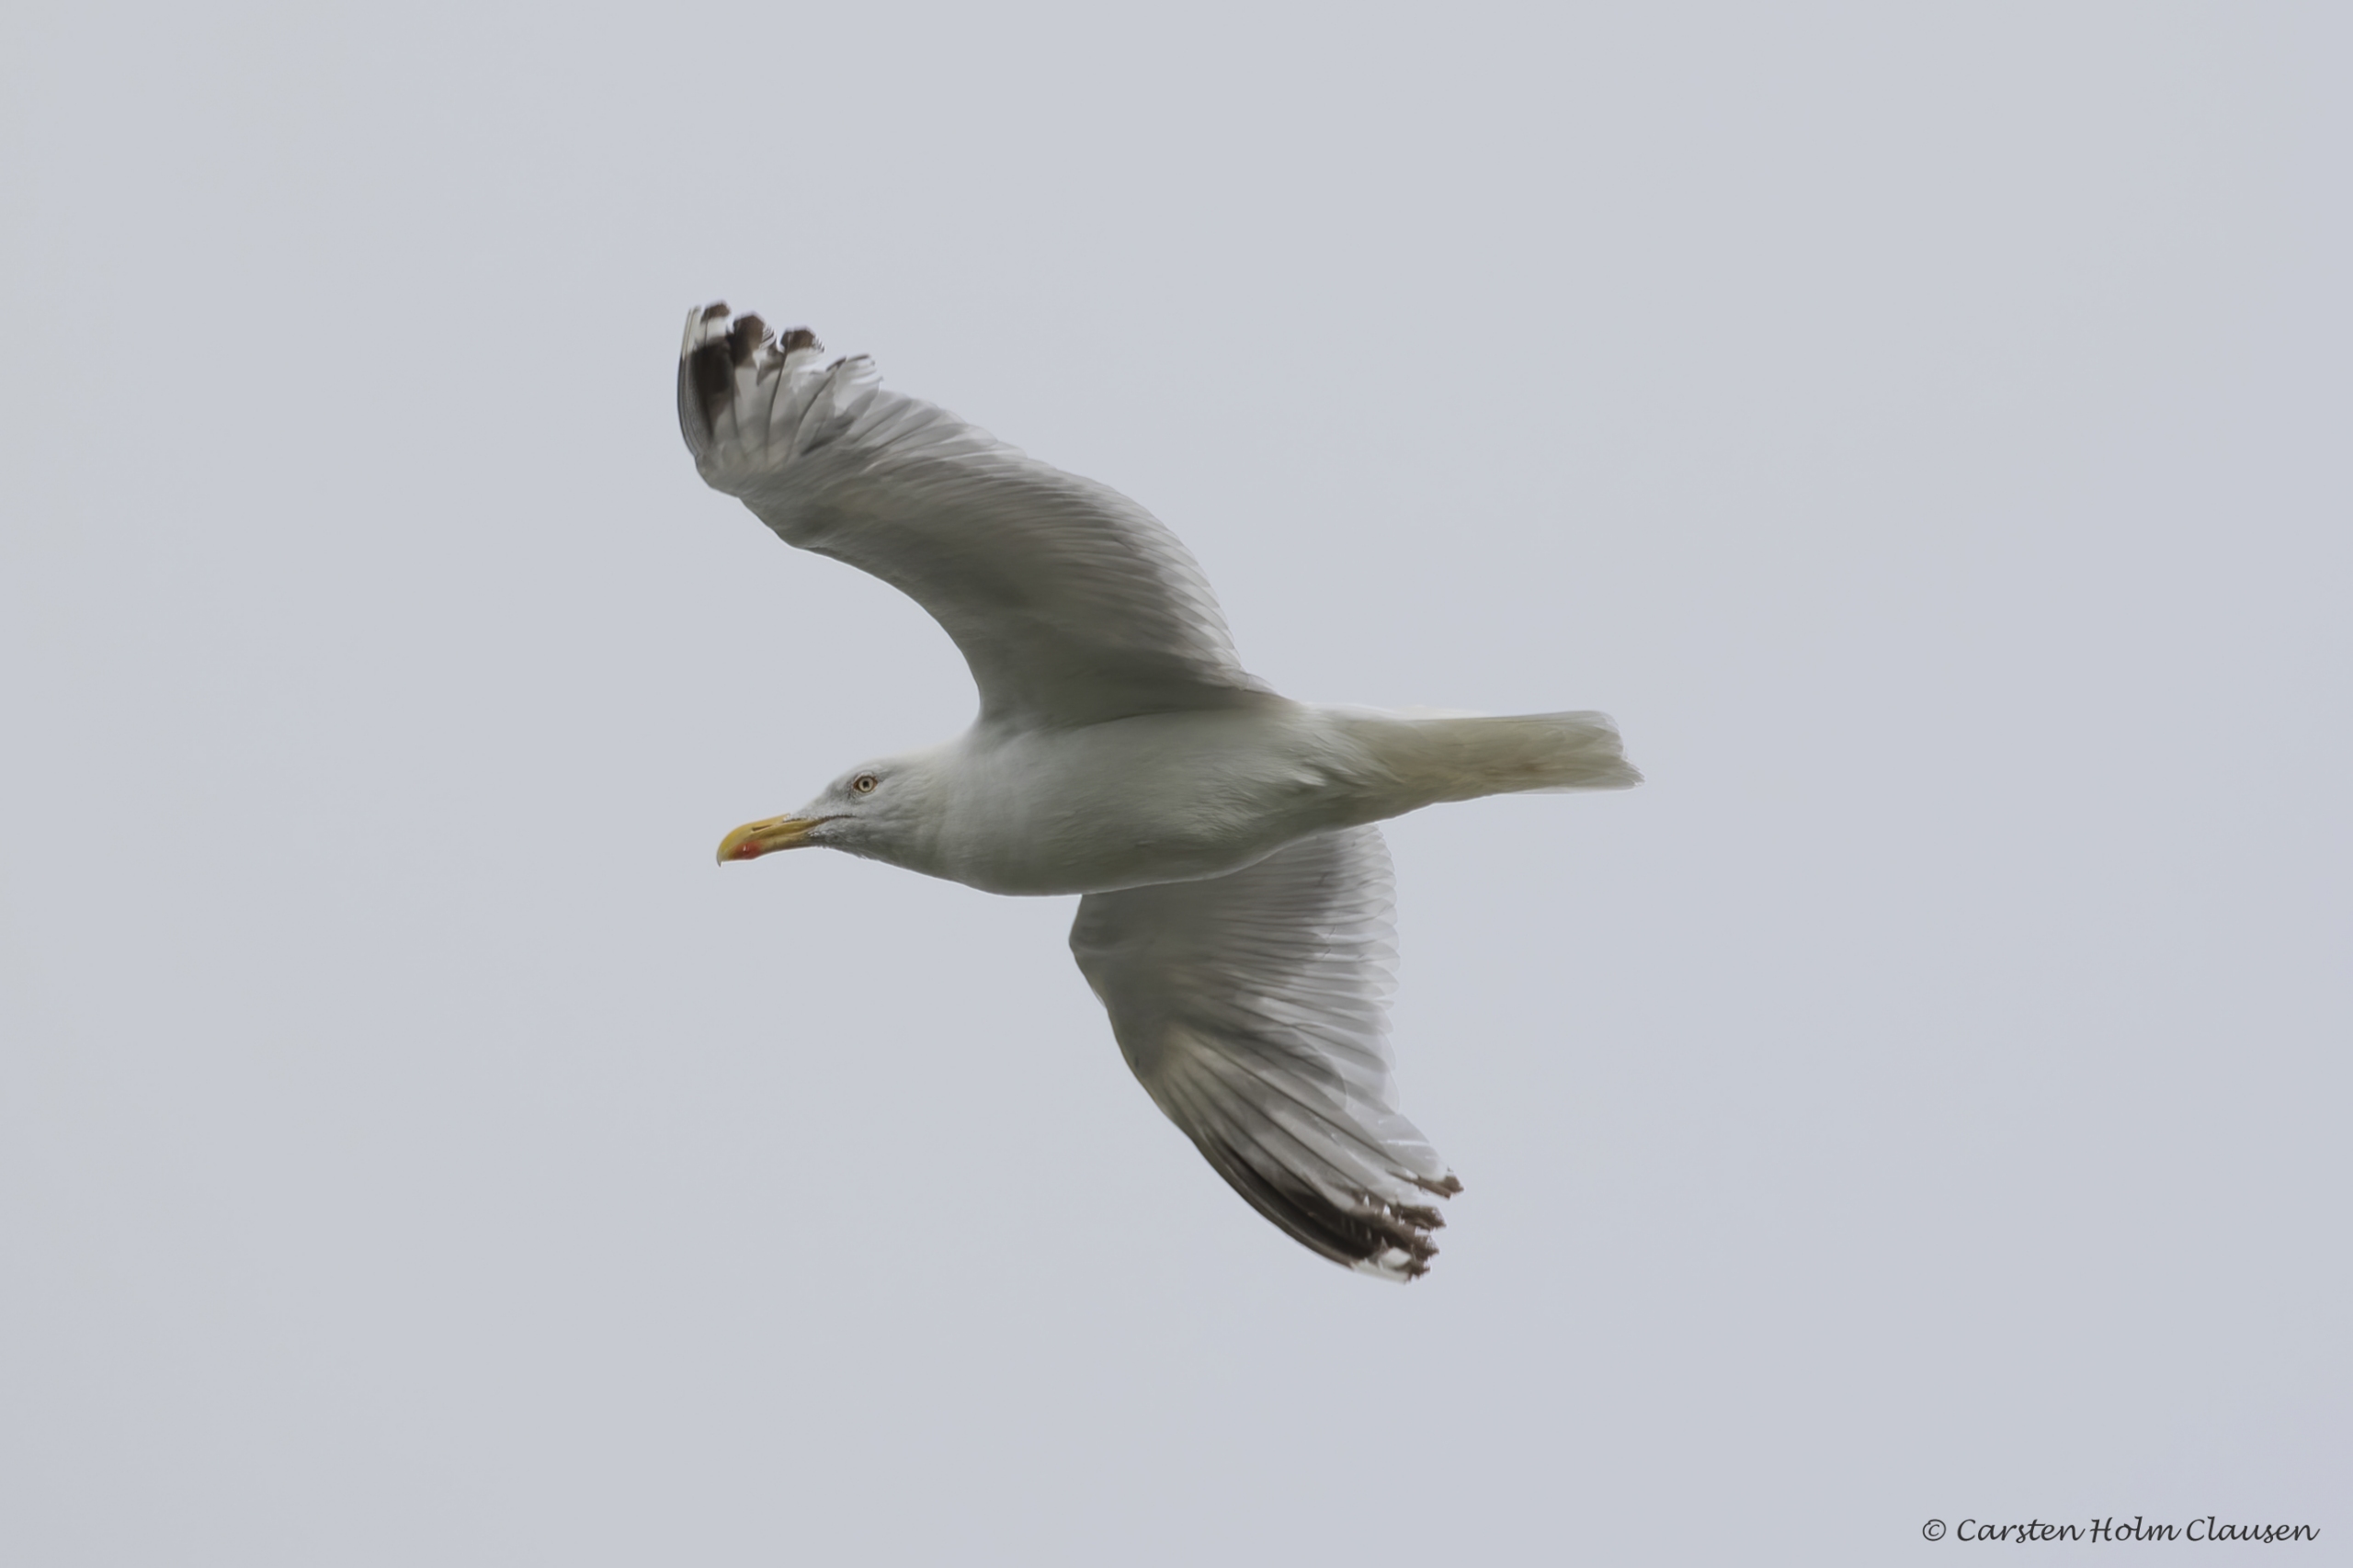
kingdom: Animalia
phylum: Chordata
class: Aves
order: Charadriiformes
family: Laridae
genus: Larus
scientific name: Larus argentatus
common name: Sølvmåge
